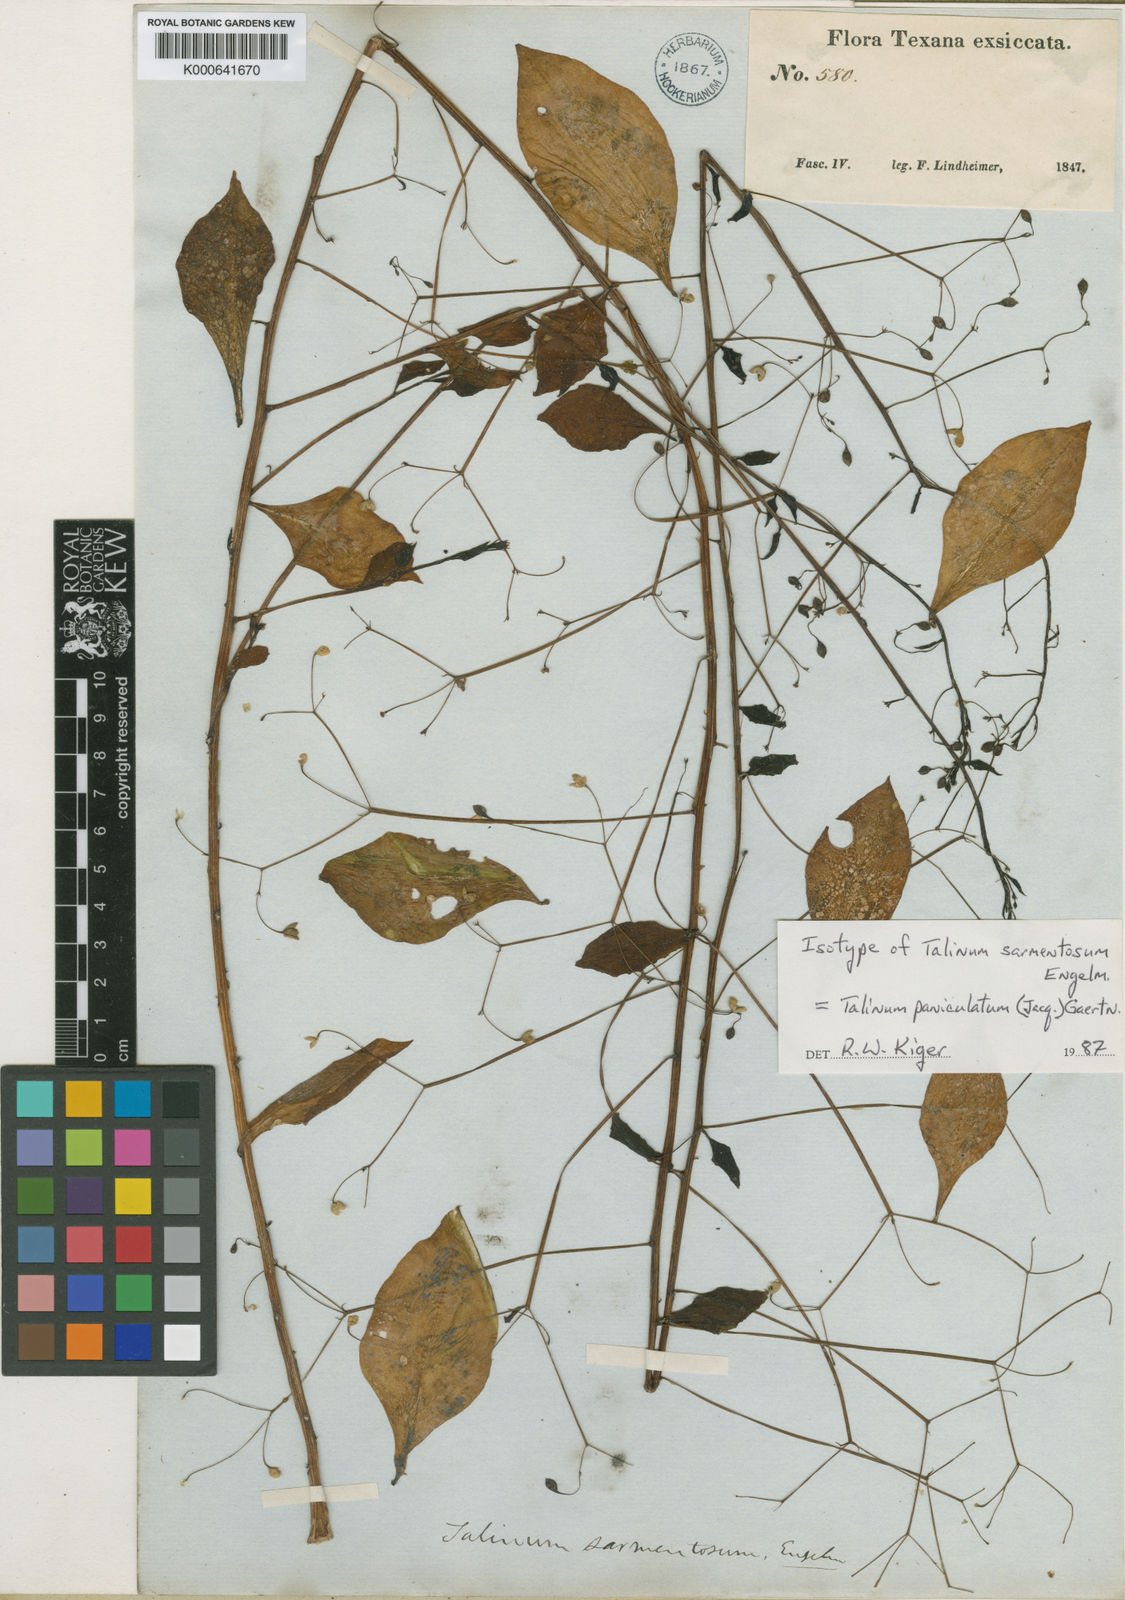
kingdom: Plantae
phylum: Tracheophyta
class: Magnoliopsida
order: Caryophyllales
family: Talinaceae
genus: Talinum
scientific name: Talinum paniculatum
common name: Jewels of opar
